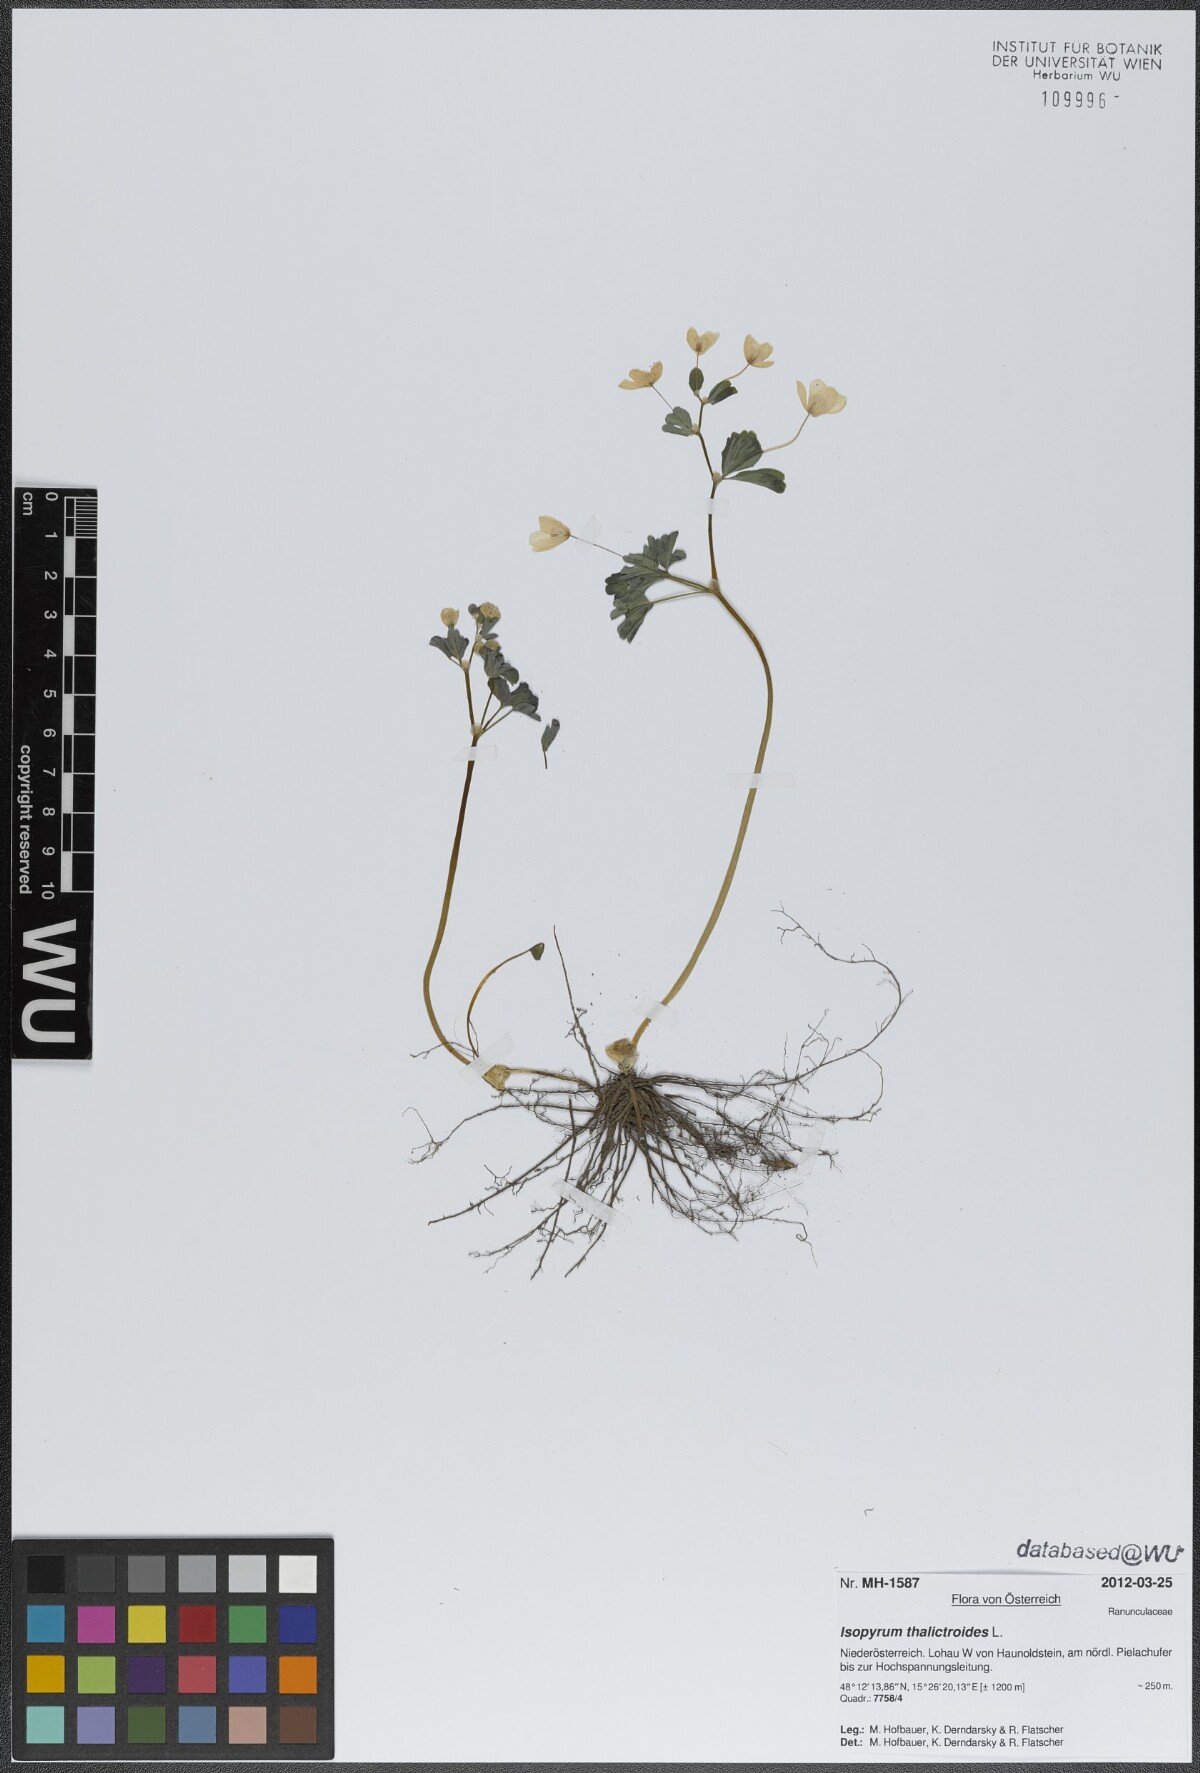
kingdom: Plantae
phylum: Tracheophyta
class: Magnoliopsida
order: Ranunculales
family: Ranunculaceae
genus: Isopyrum
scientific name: Isopyrum thalictroides
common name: Isopyrum
